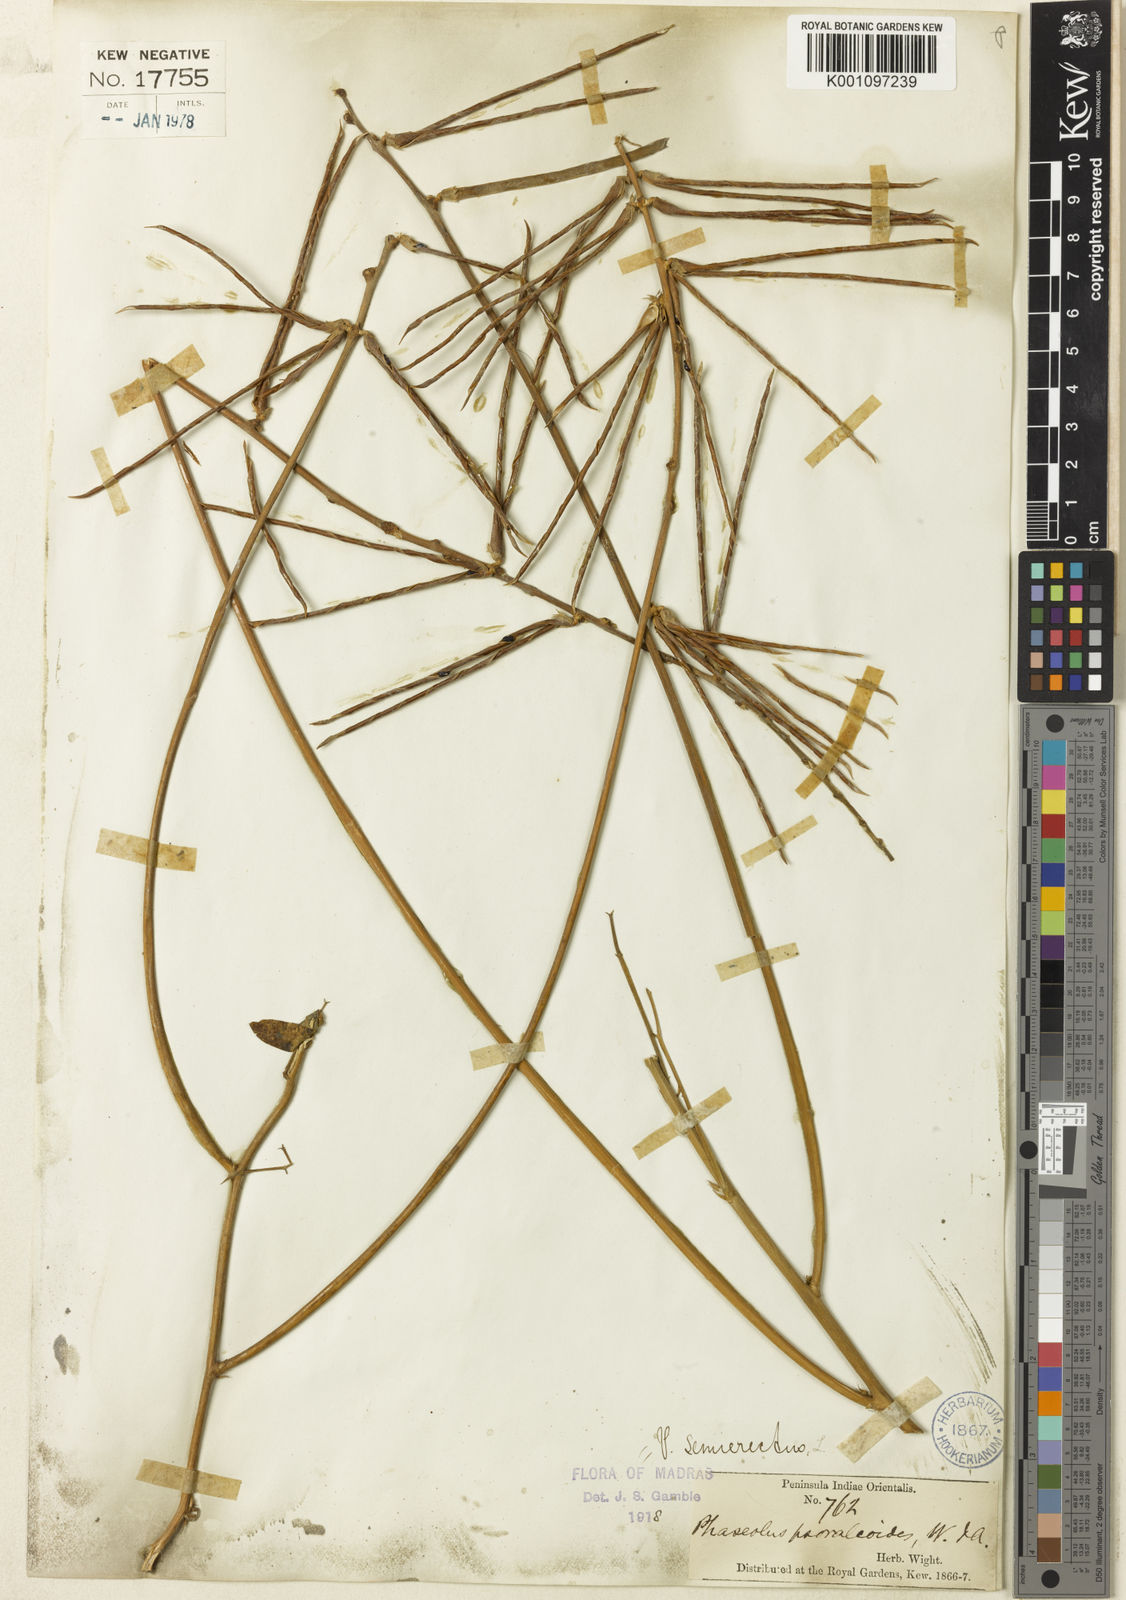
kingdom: Plantae
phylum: Tracheophyta
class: Magnoliopsida
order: Fabales
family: Fabaceae
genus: Macroptilium
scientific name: Macroptilium lathyroides
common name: Wild bushbean
